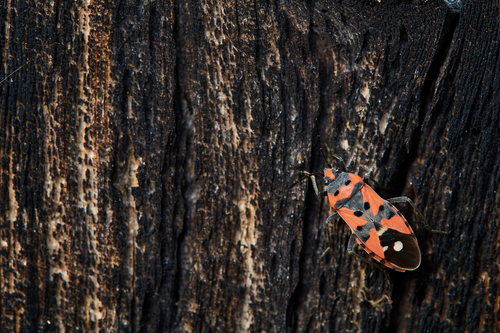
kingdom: Animalia
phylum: Arthropoda
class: Insecta
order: Hemiptera
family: Lygaeidae
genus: Lygaeus
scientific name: Lygaeus equestris
